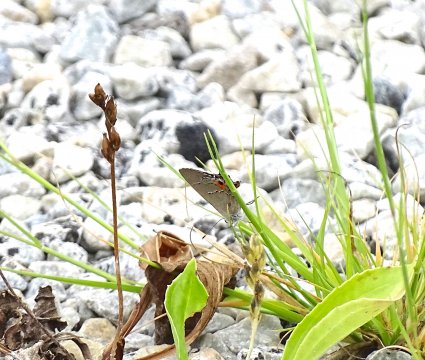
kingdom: Animalia
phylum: Arthropoda
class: Insecta
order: Lepidoptera
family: Lycaenidae
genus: Strymon
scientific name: Strymon melinus
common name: Gray Hairstreak
